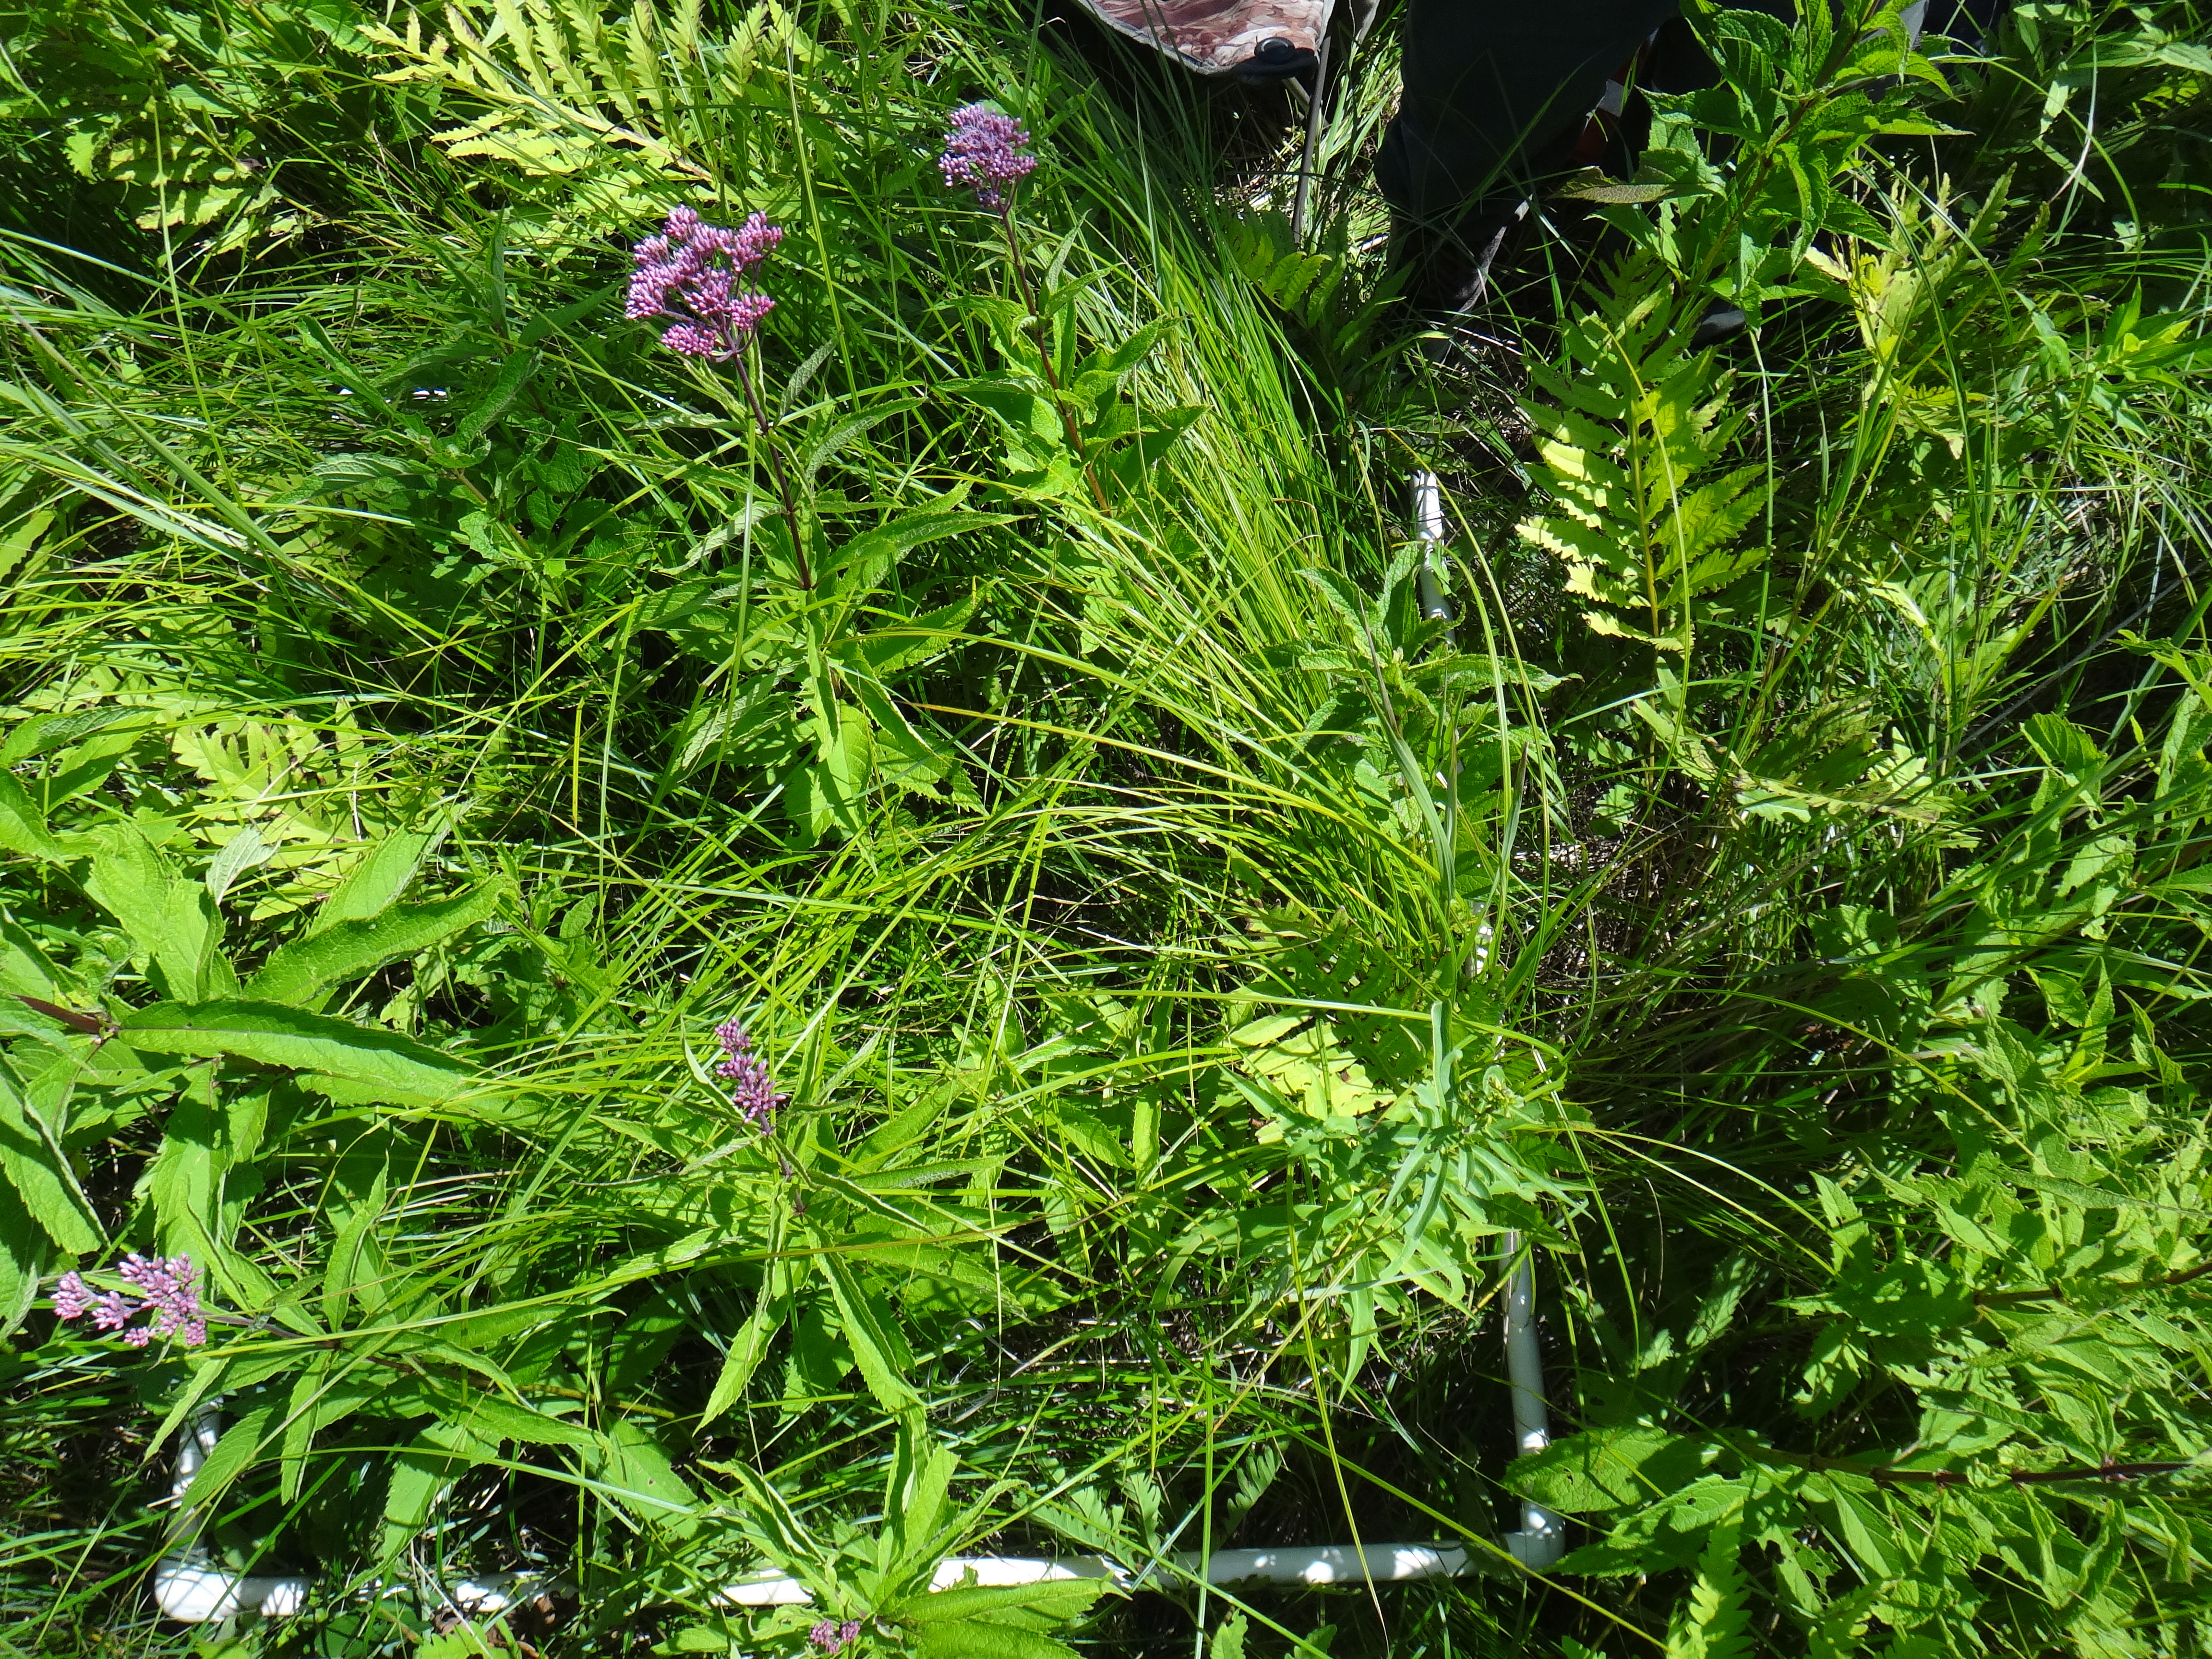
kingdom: Plantae
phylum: Tracheophyta
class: Magnoliopsida
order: Asterales
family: Asteraceae
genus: Symphyotrichum
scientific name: Symphyotrichum puniceum
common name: Bog aster
